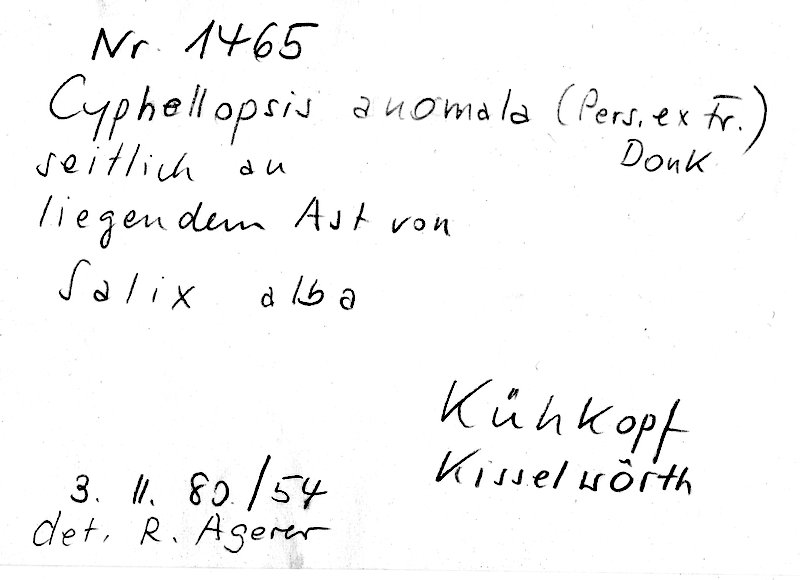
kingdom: Plantae
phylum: Tracheophyta
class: Magnoliopsida
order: Malpighiales
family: Salicaceae
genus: Salix
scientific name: Salix alba
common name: White willow
